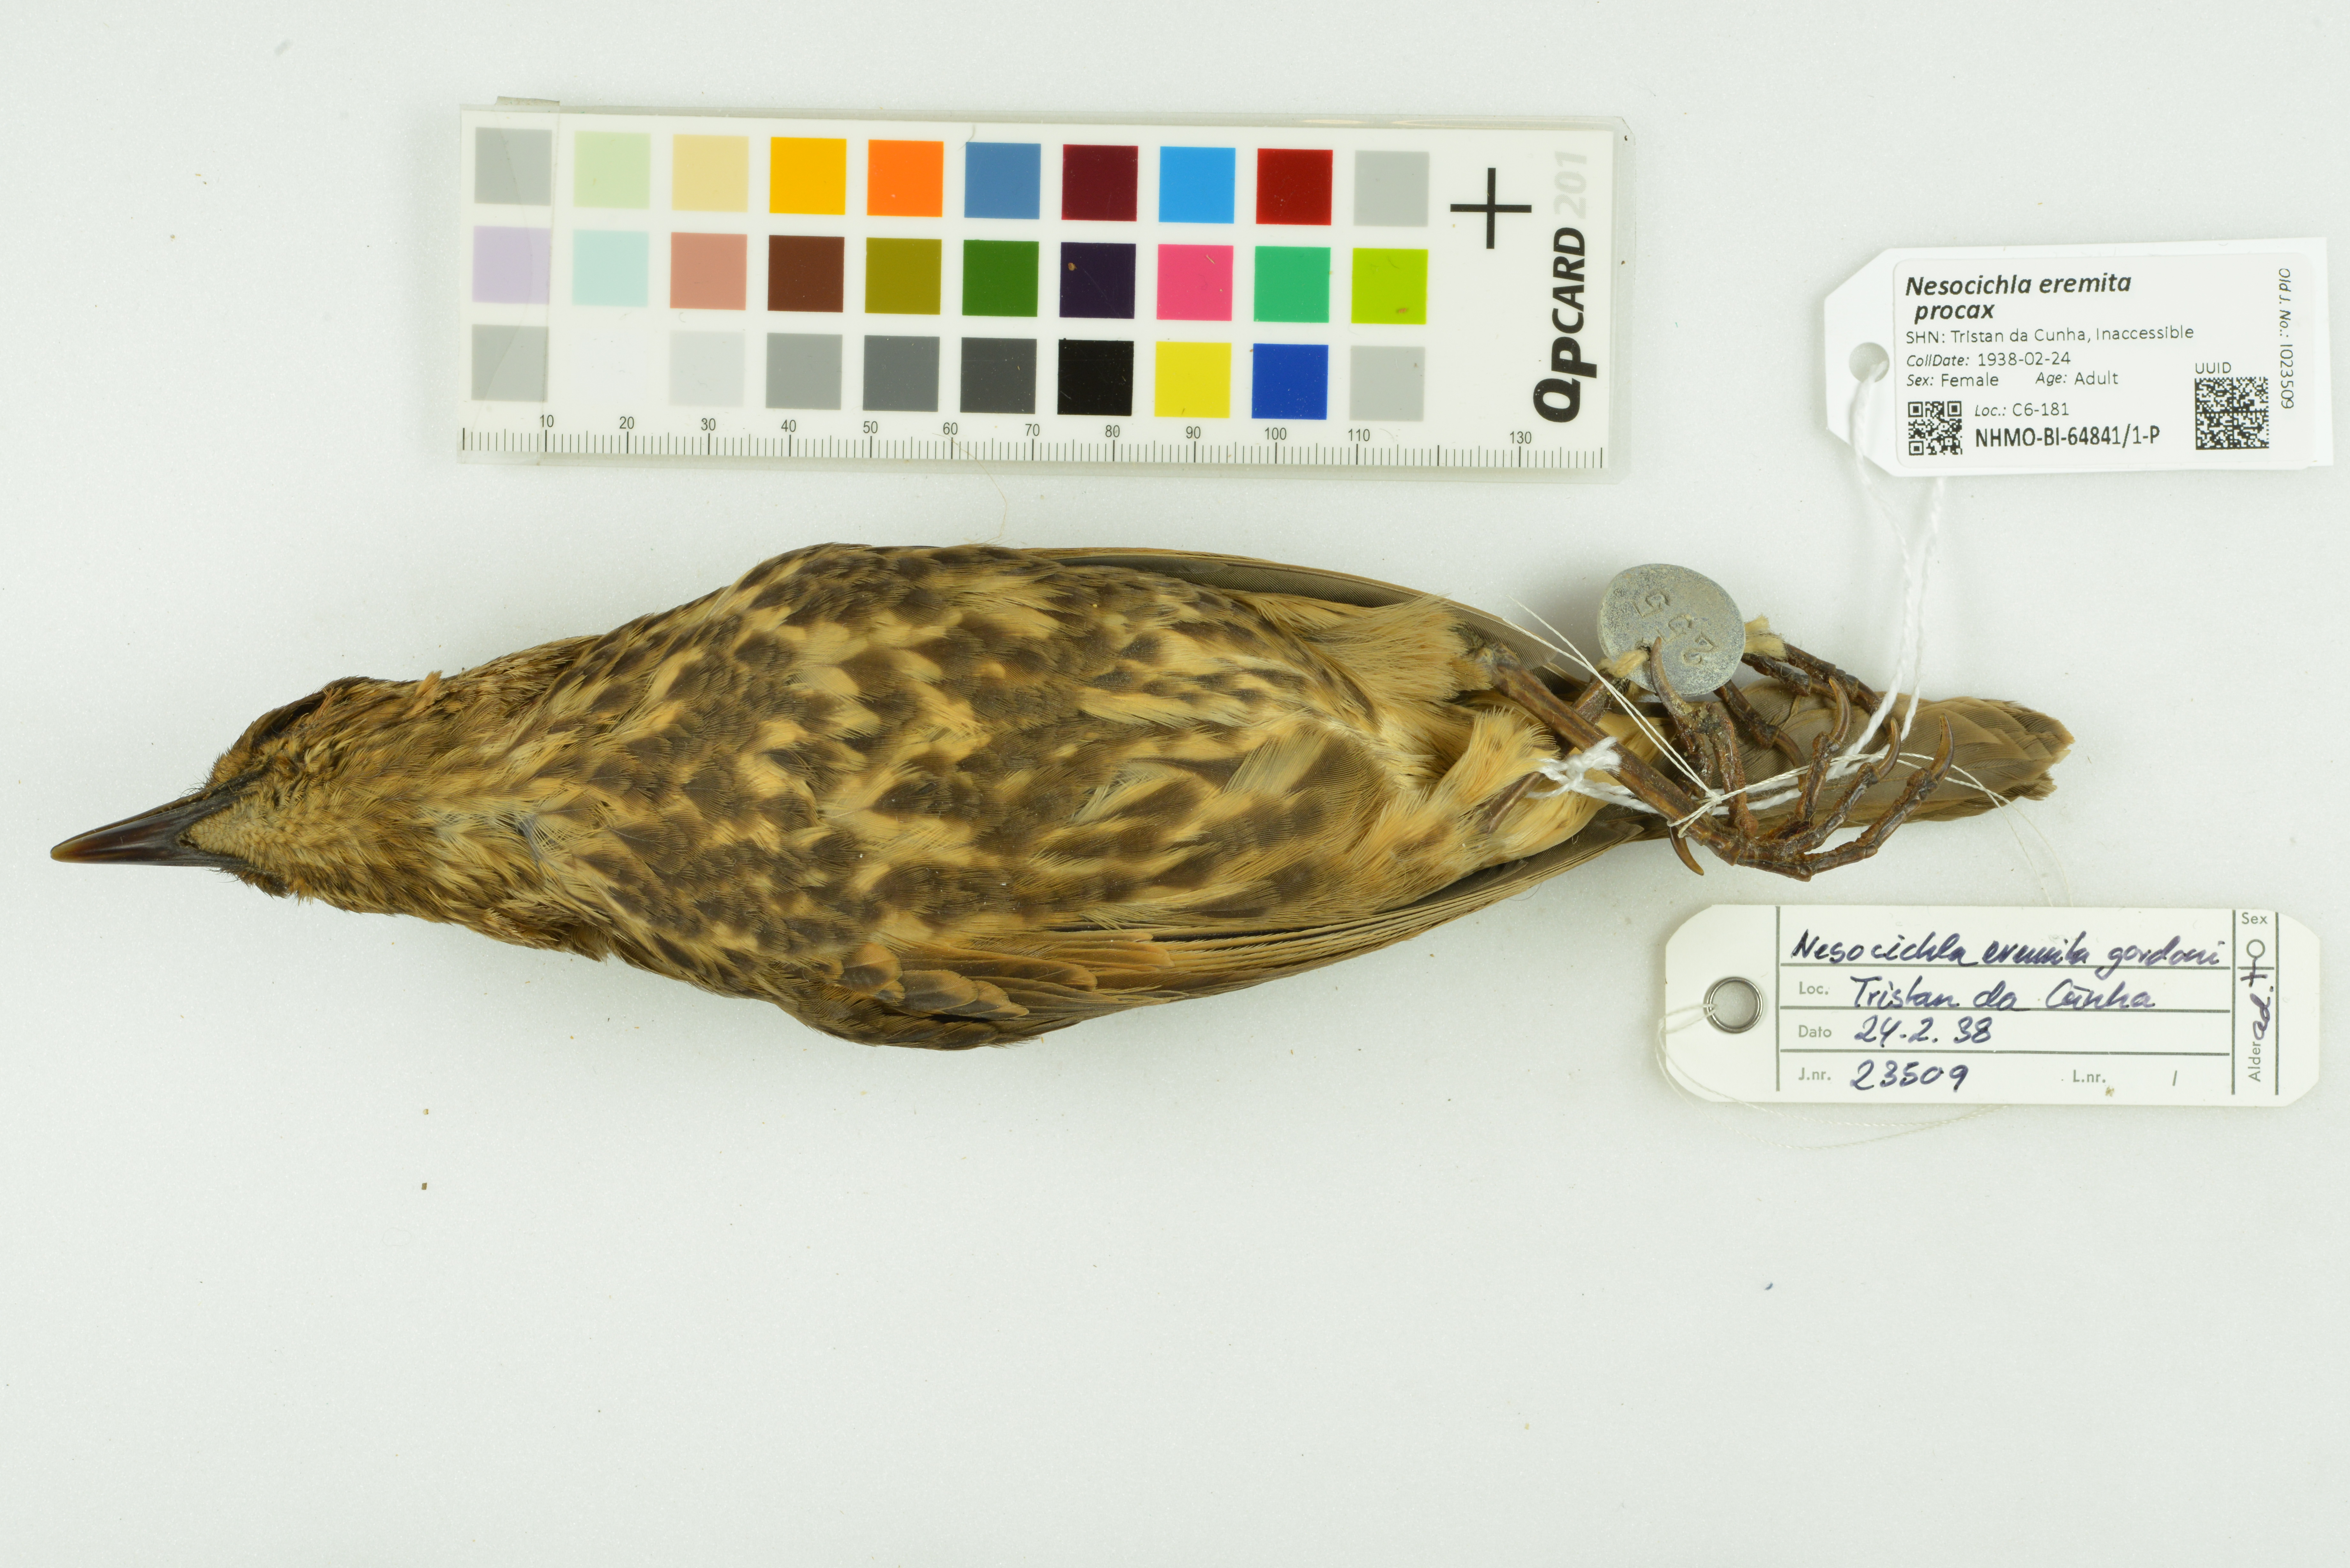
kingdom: Animalia
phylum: Chordata
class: Aves
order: Passeriformes
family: Turdidae
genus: Nesocichla
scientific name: Nesocichla eremita
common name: Tristan thrush
